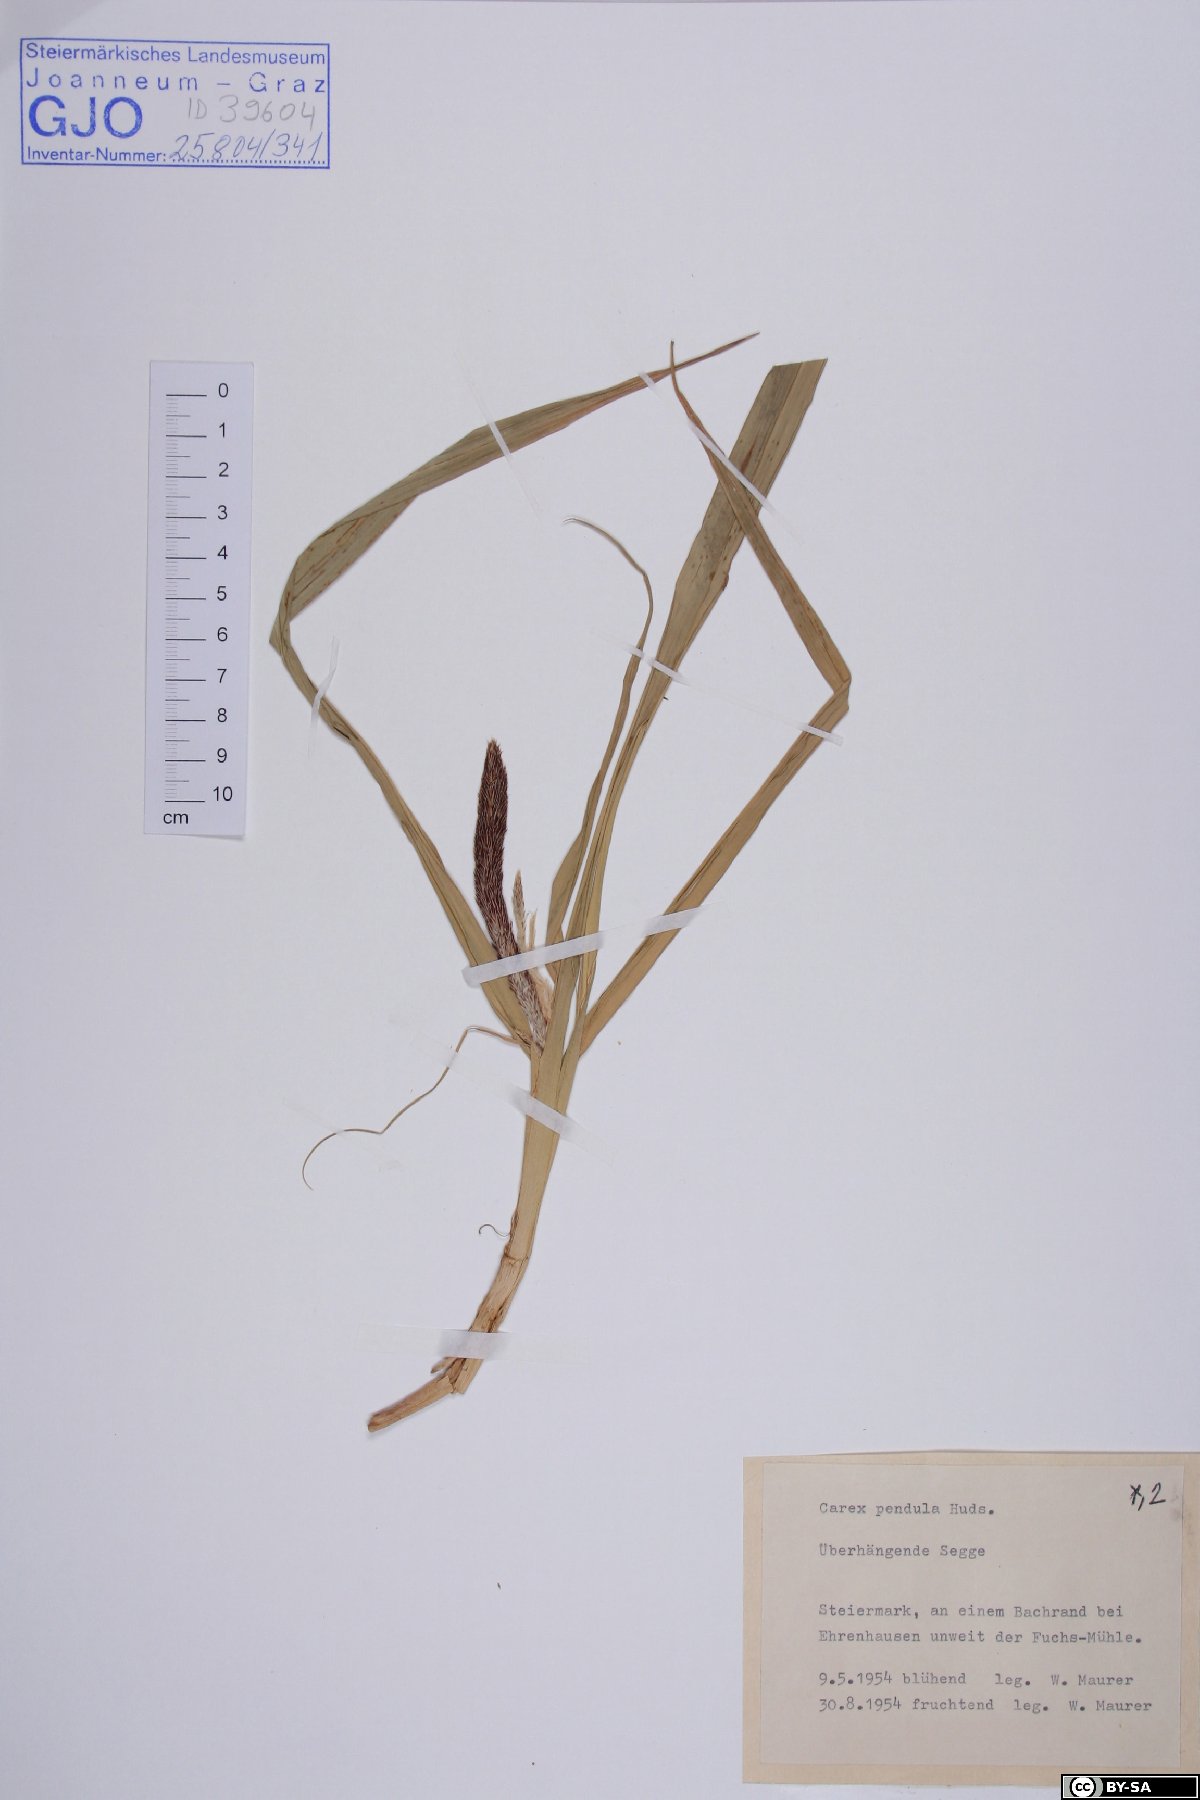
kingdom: Plantae
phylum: Tracheophyta
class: Liliopsida
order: Poales
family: Cyperaceae
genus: Carex
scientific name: Carex pendula
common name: Pendulous sedge
